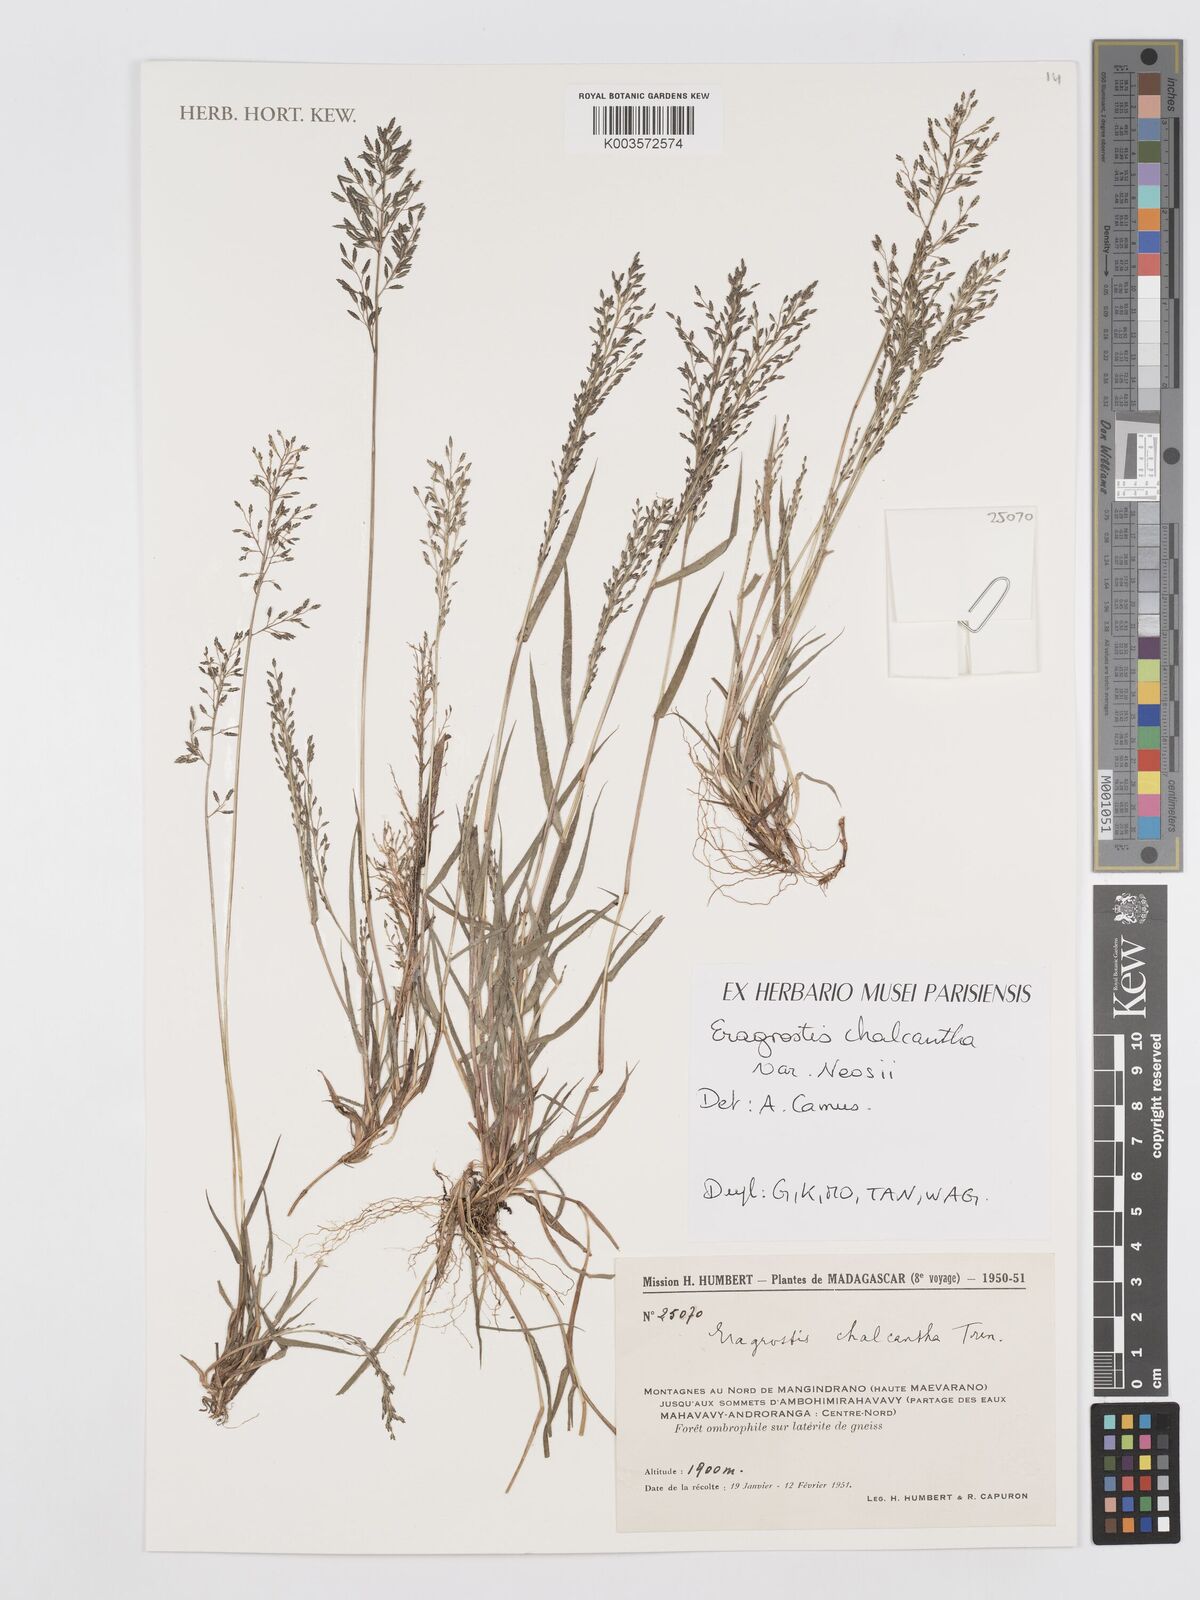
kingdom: Plantae
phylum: Tracheophyta
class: Liliopsida
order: Poales
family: Poaceae
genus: Eragrostis
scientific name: Eragrostis racemosa
